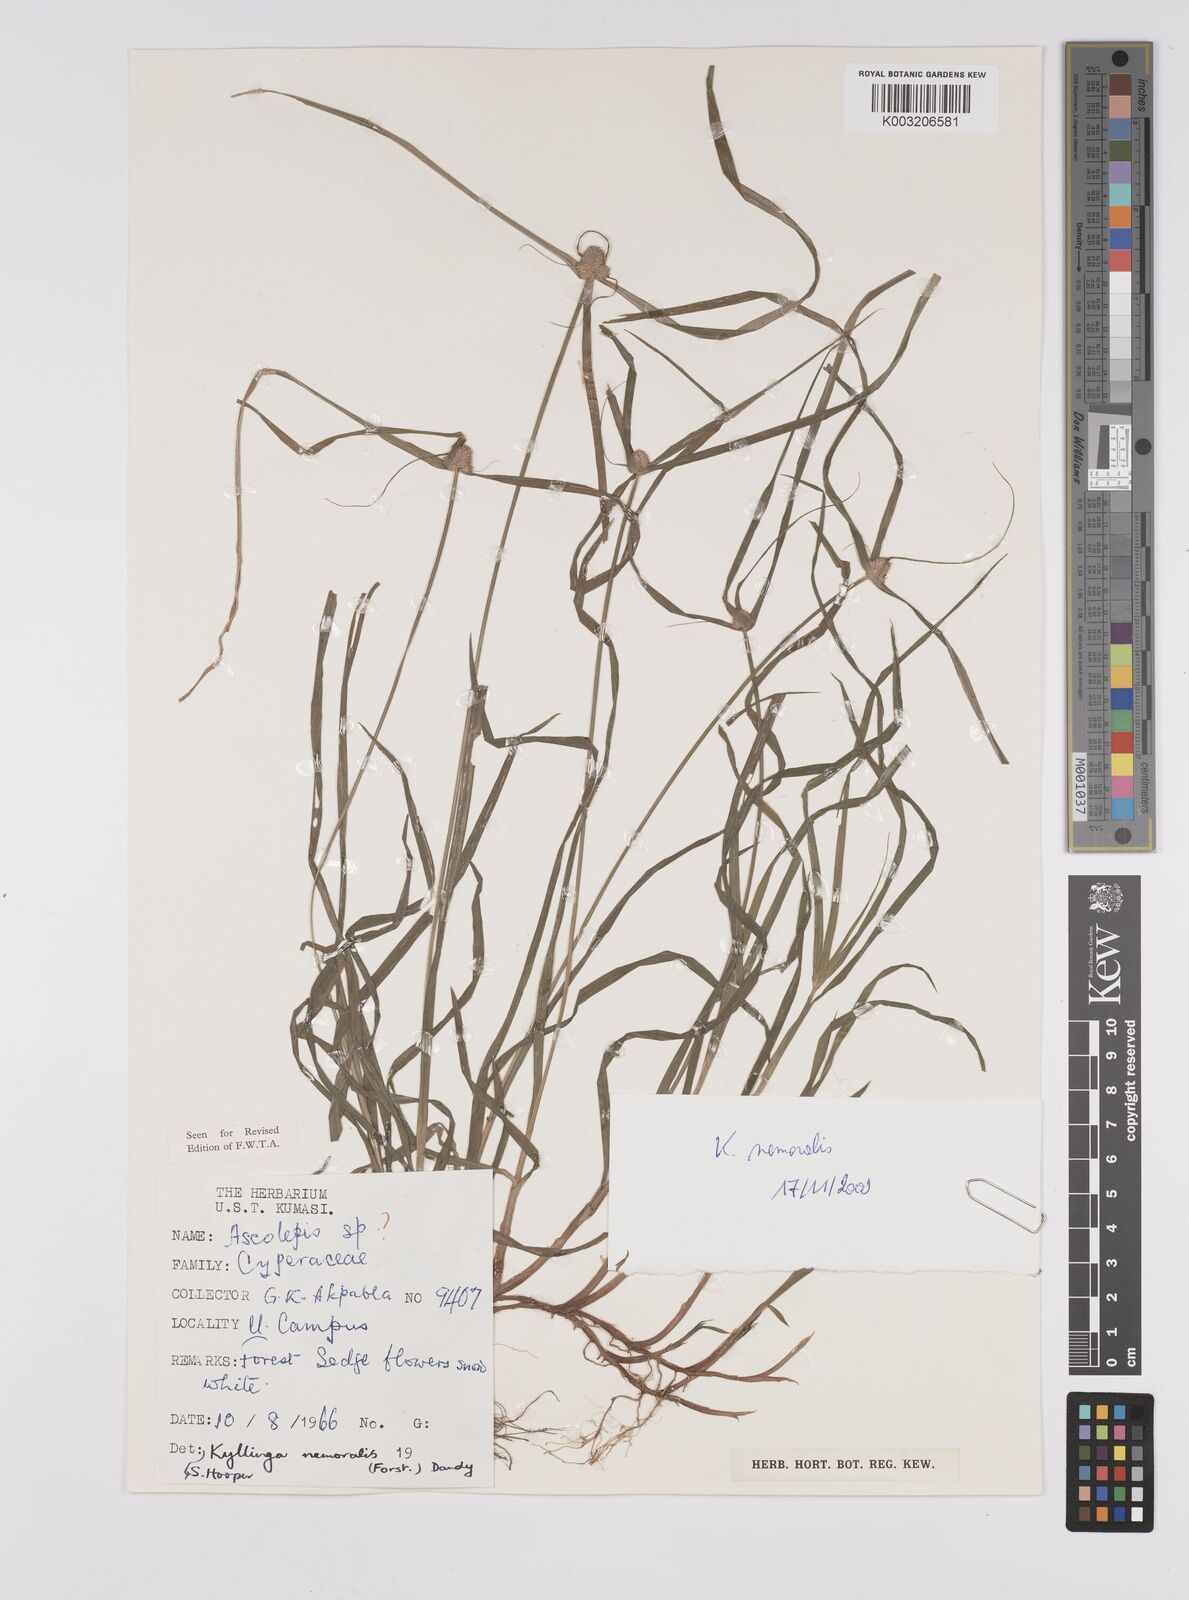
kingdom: Plantae
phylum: Tracheophyta
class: Liliopsida
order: Poales
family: Cyperaceae
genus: Cyperus
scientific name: Cyperus nemoralis
